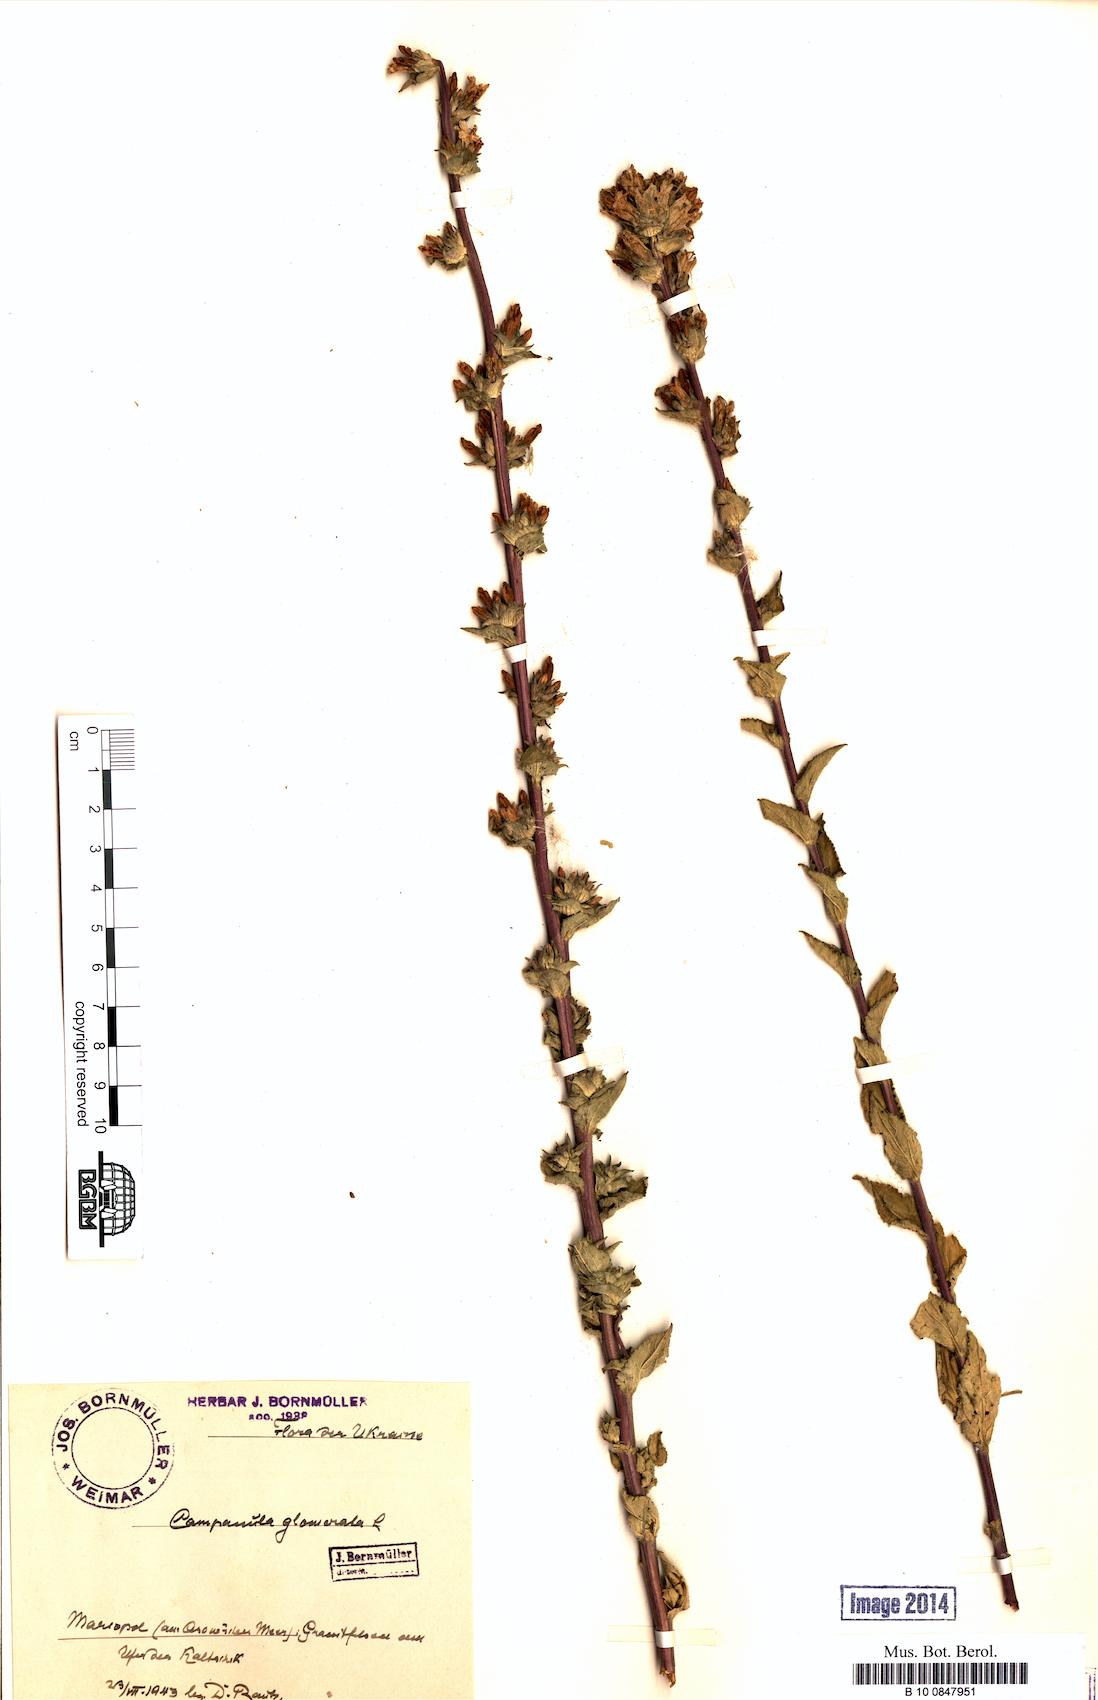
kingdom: Plantae
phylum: Tracheophyta
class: Magnoliopsida
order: Asterales
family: Campanulaceae
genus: Campanula
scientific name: Campanula glomerata
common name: Clustered bellflower
